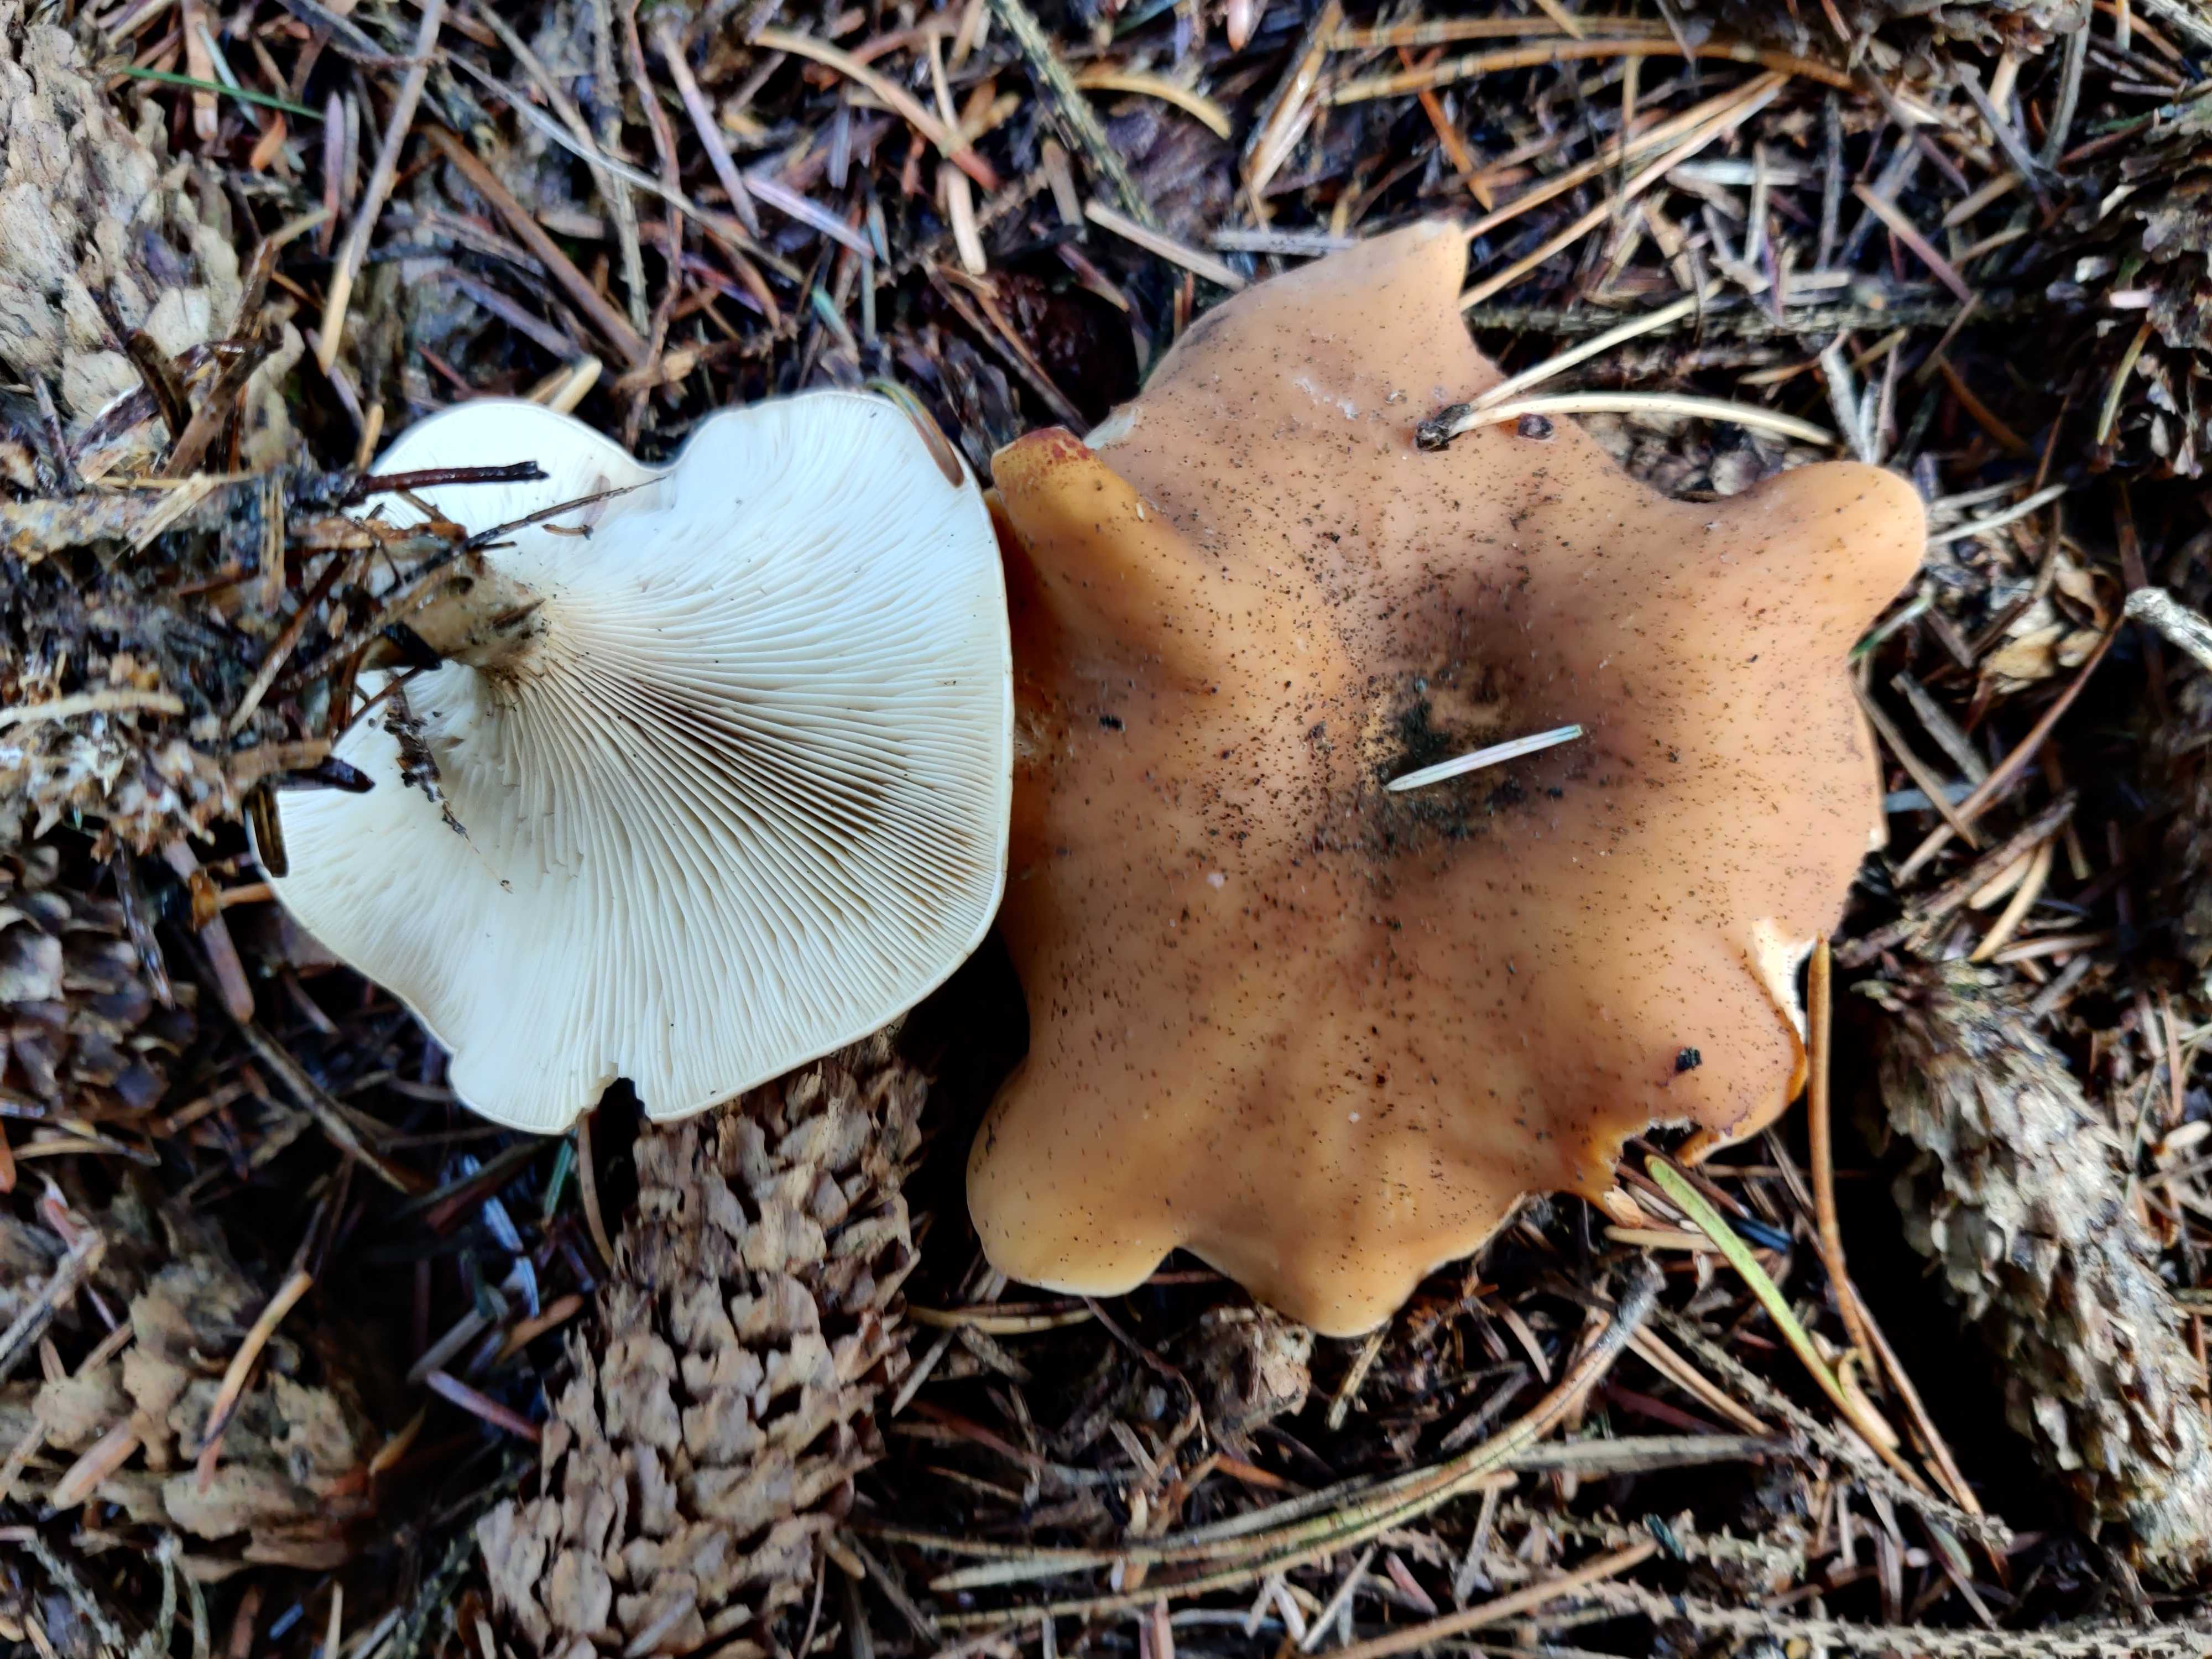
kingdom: Fungi
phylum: Basidiomycota
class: Agaricomycetes
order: Agaricales
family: Tricholomataceae
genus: Paralepista
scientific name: Paralepista flaccida
